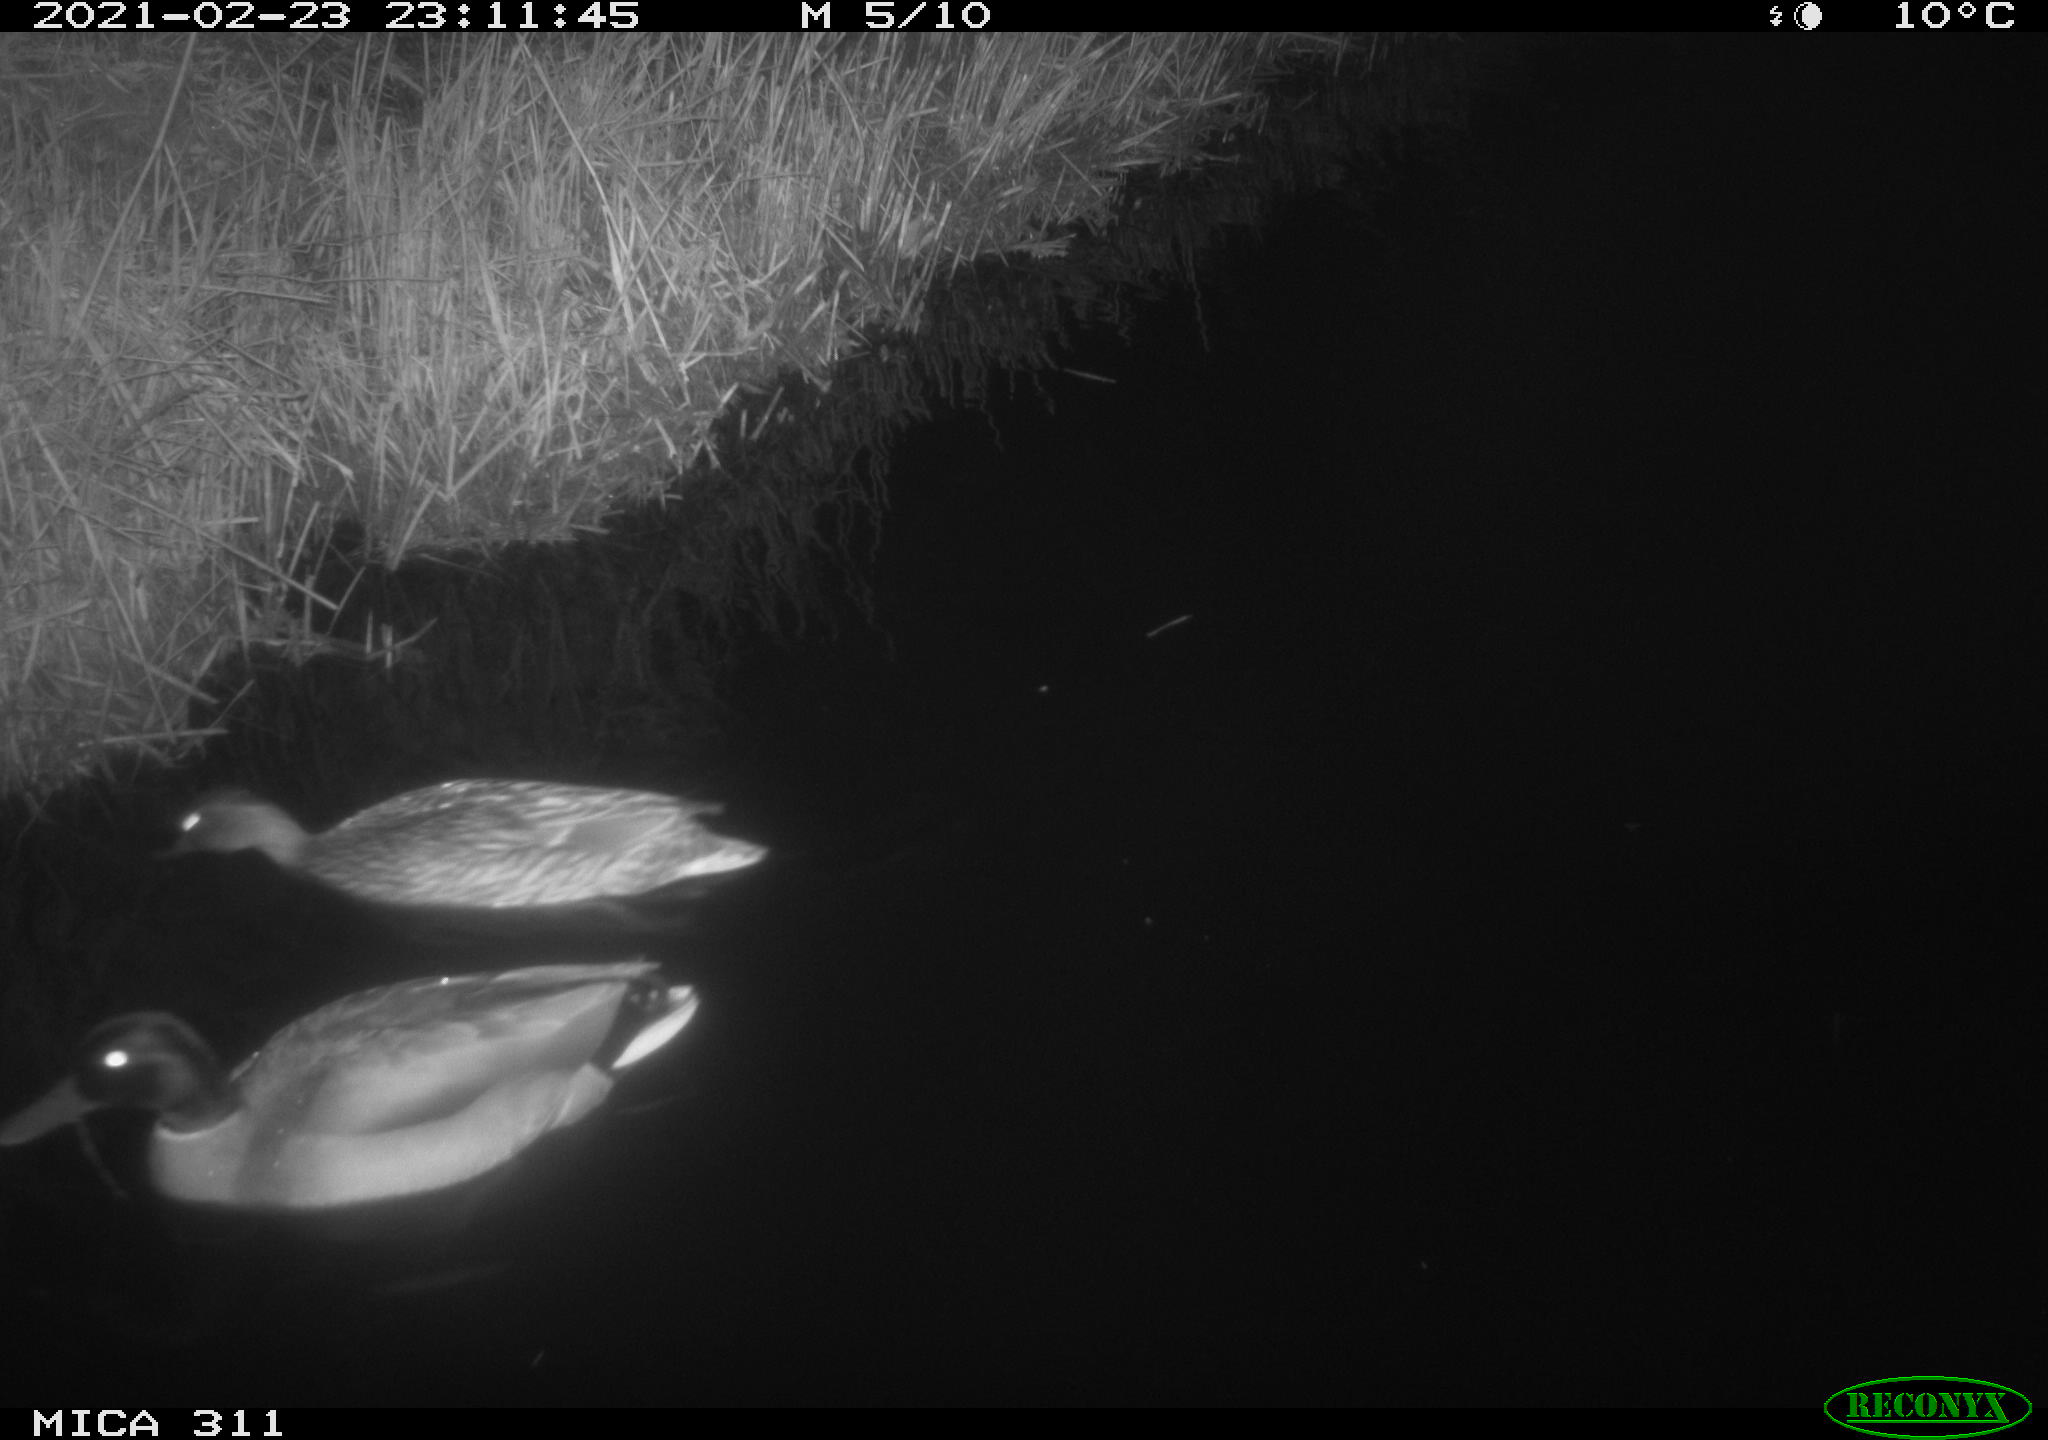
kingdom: Animalia
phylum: Chordata
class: Aves
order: Gruiformes
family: Rallidae
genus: Gallinula
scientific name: Gallinula chloropus
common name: Common moorhen
